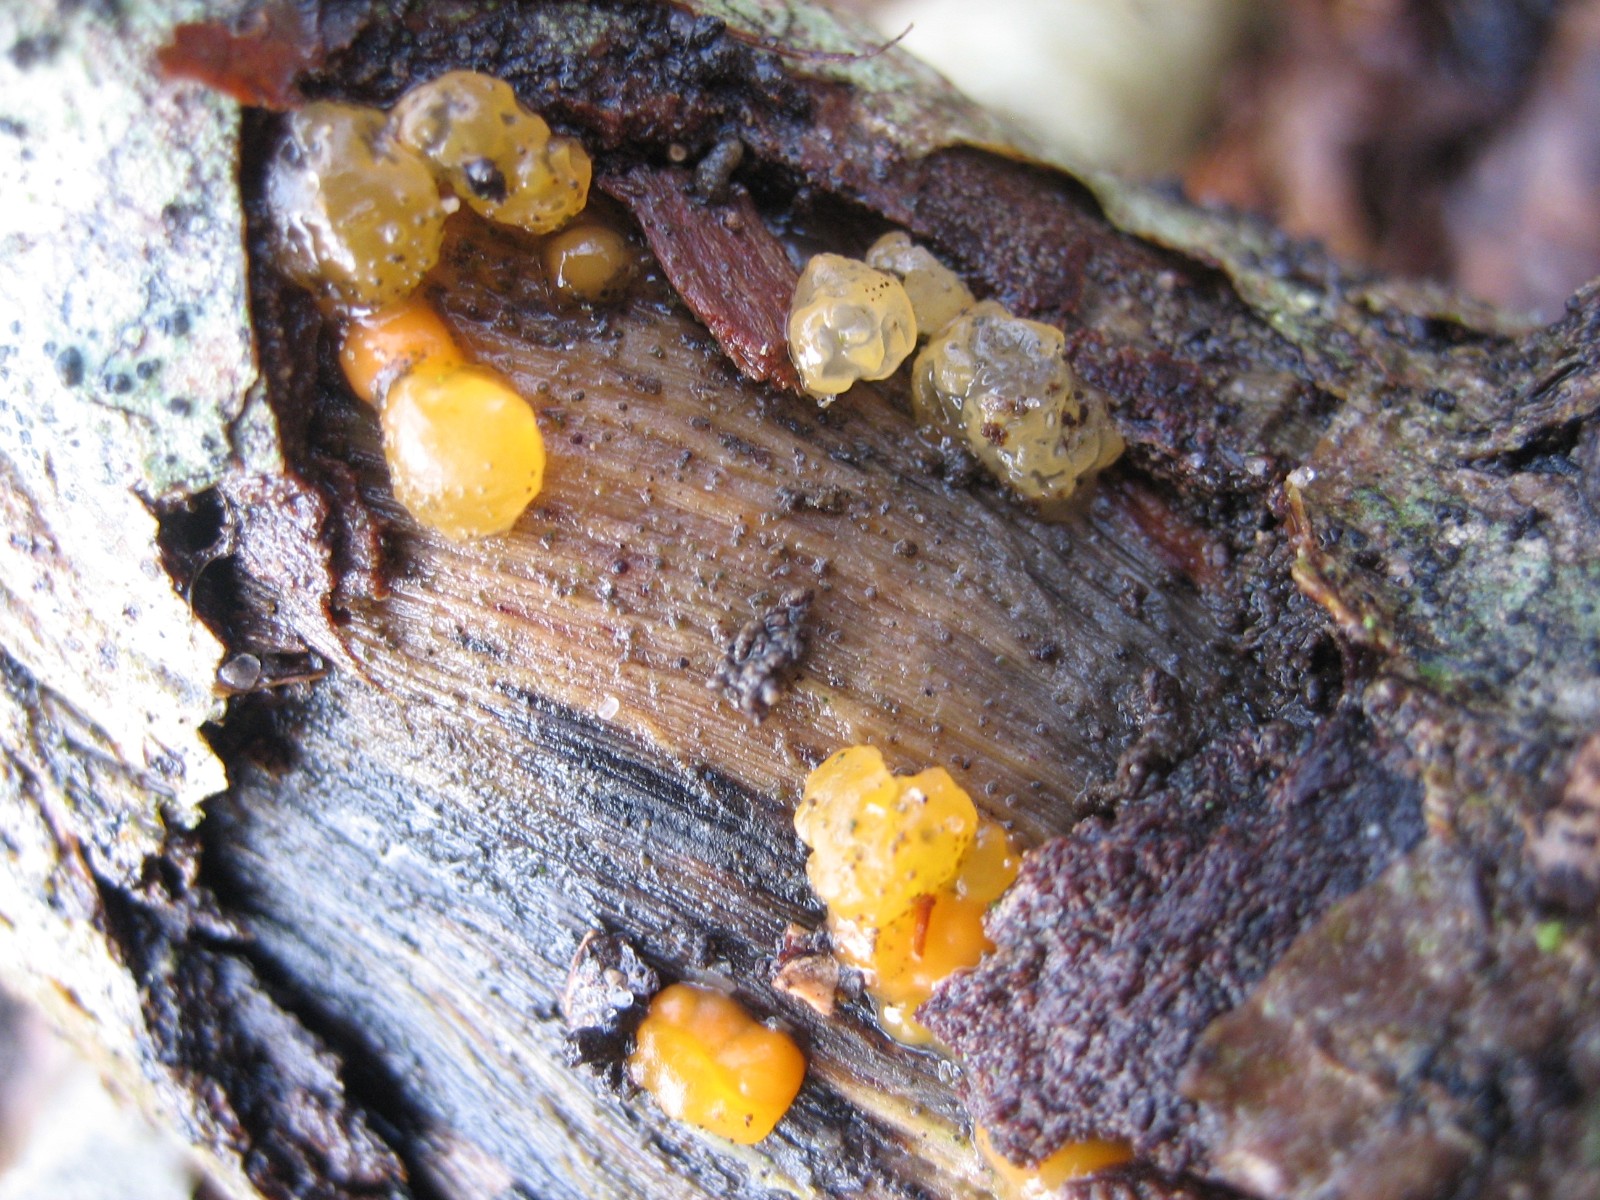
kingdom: Fungi
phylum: Basidiomycota
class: Dacrymycetes
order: Dacrymycetales
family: Dacrymycetaceae
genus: Dacrymyces
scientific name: Dacrymyces lacrymalis
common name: rynket tåresvamp
